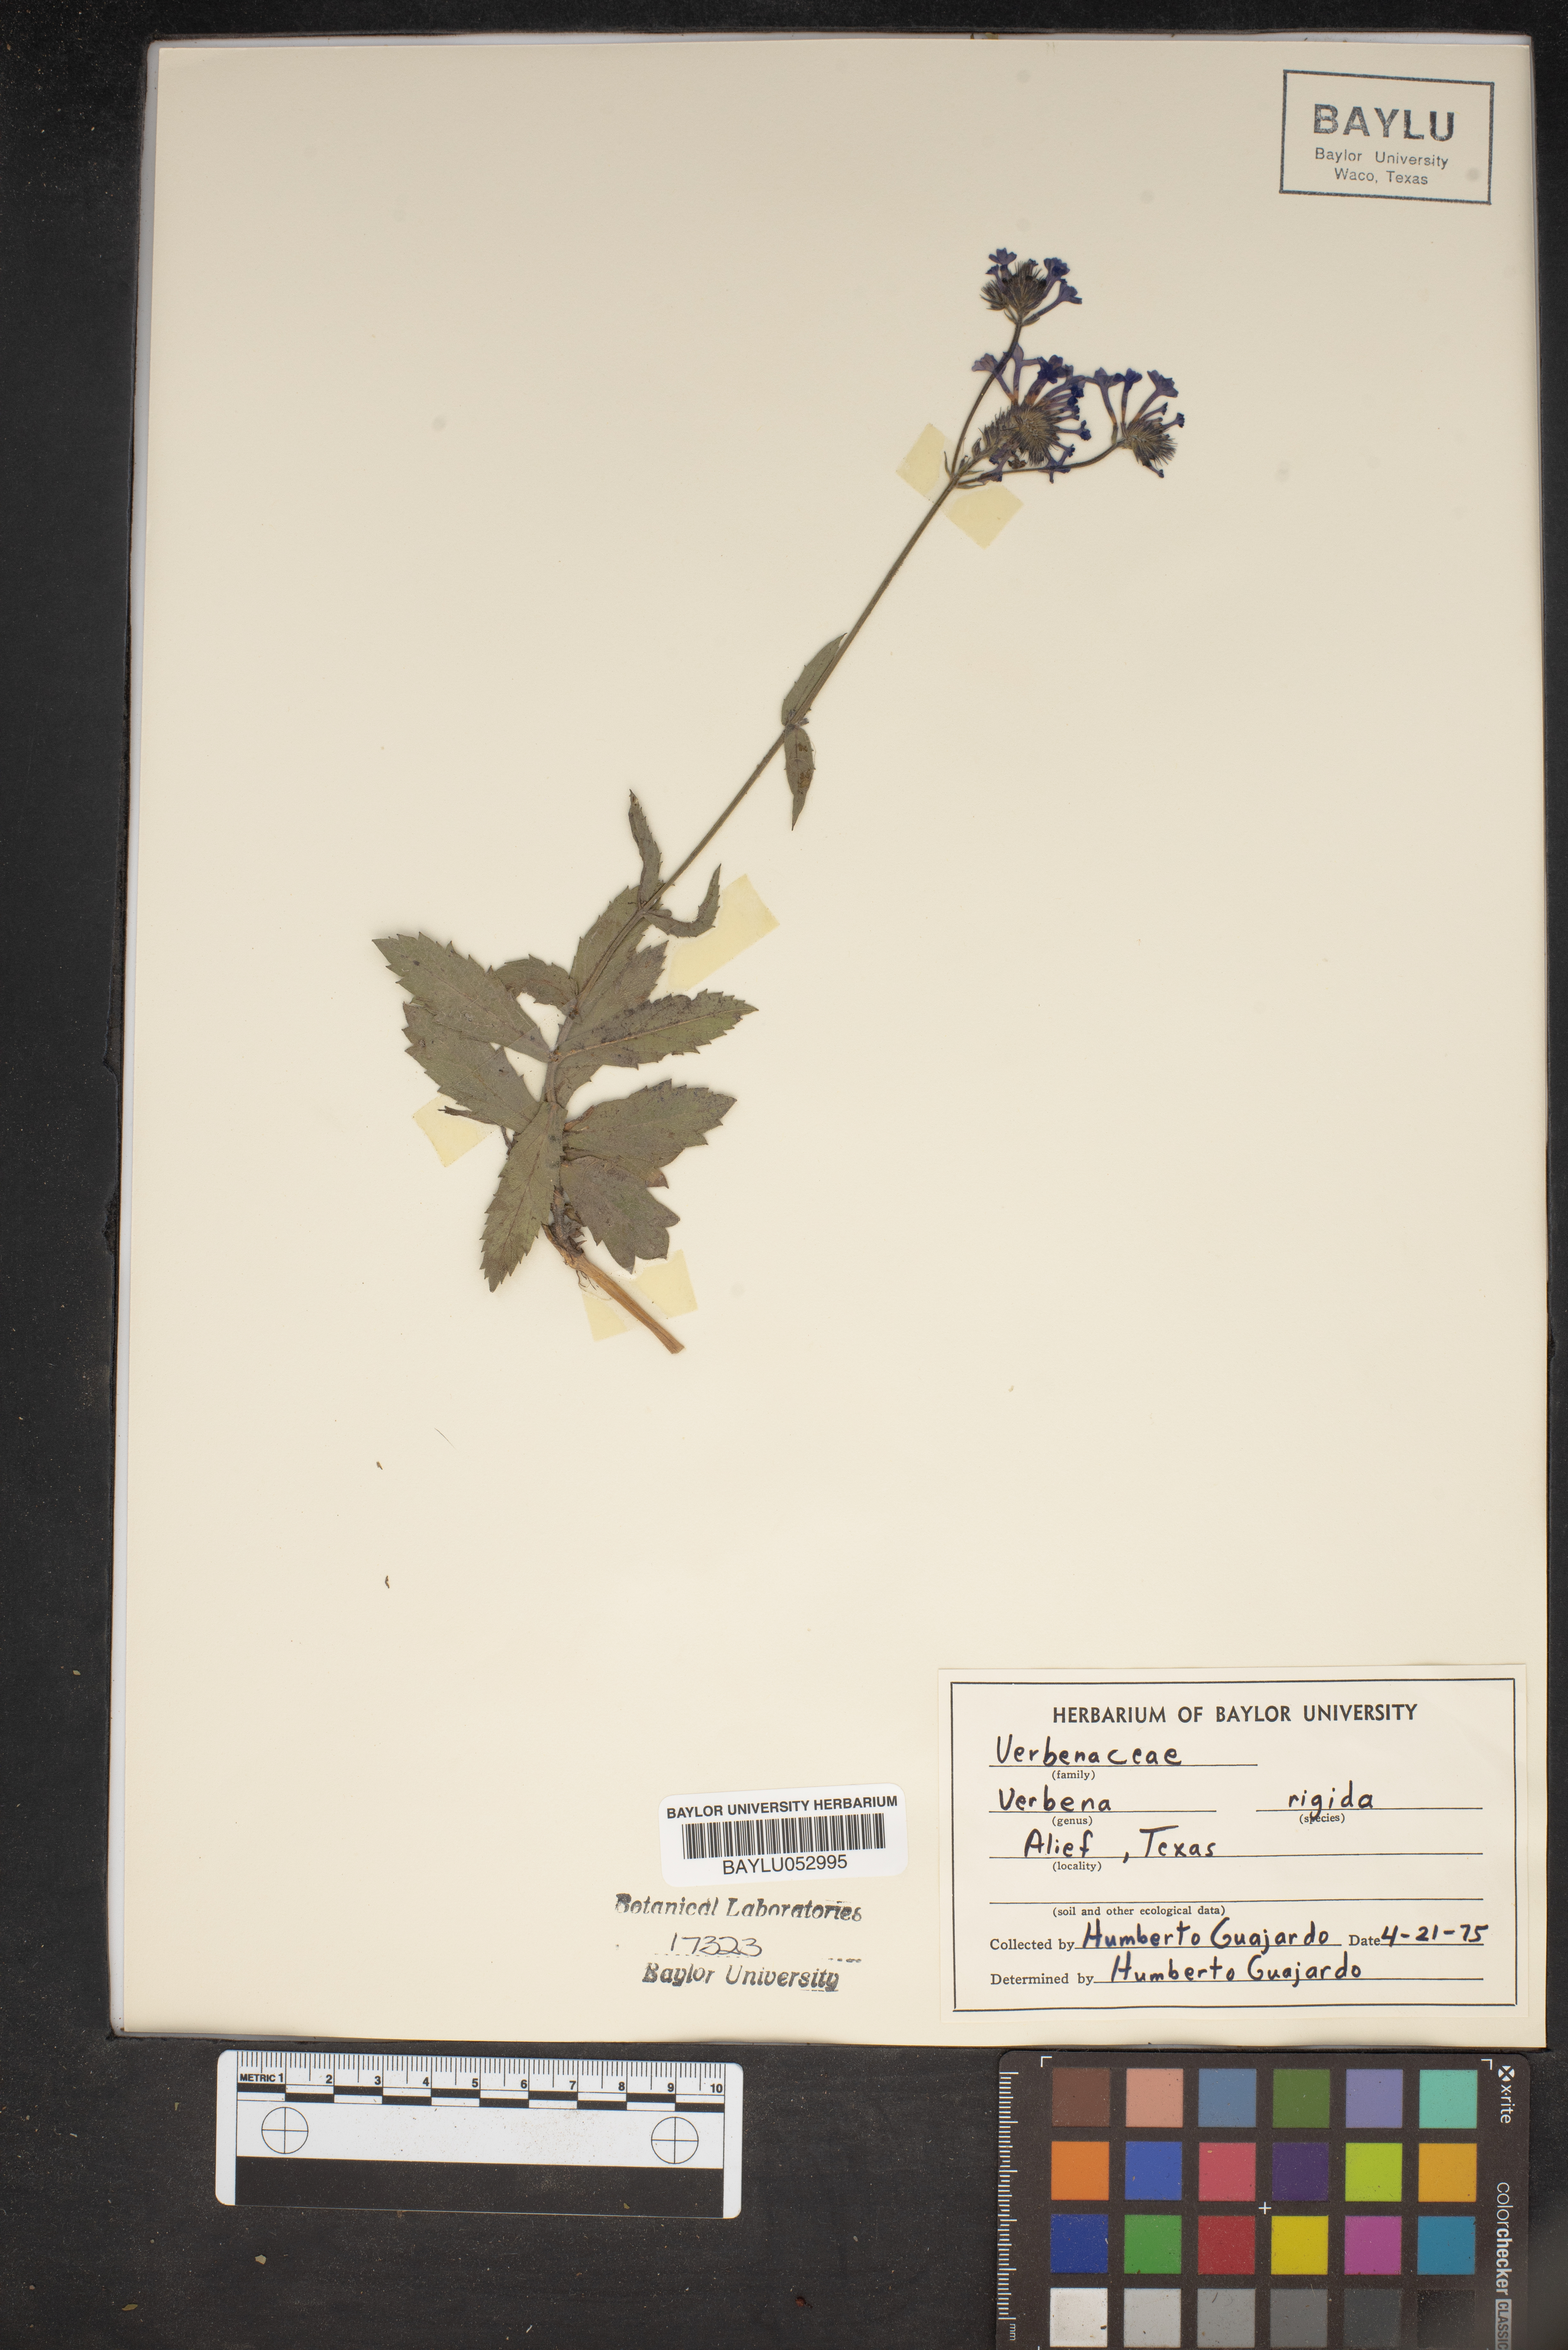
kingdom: Plantae
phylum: Tracheophyta
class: Magnoliopsida
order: Lamiales
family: Verbenaceae
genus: Verbena
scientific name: Verbena rigida
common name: Slender vervain
